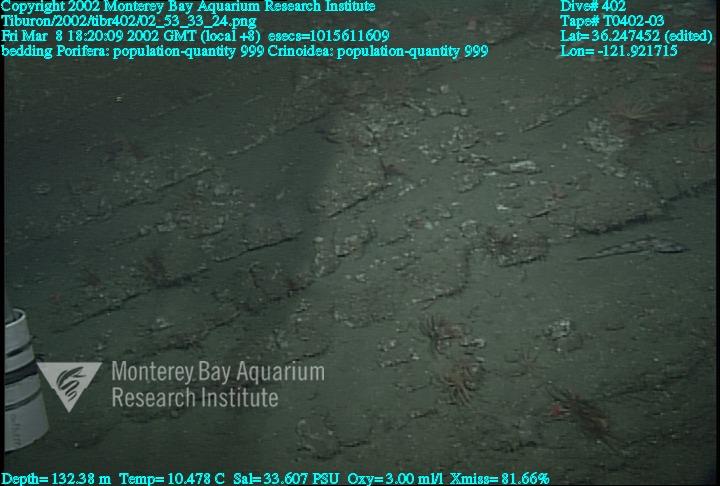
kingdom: Animalia
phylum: Porifera
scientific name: Porifera
